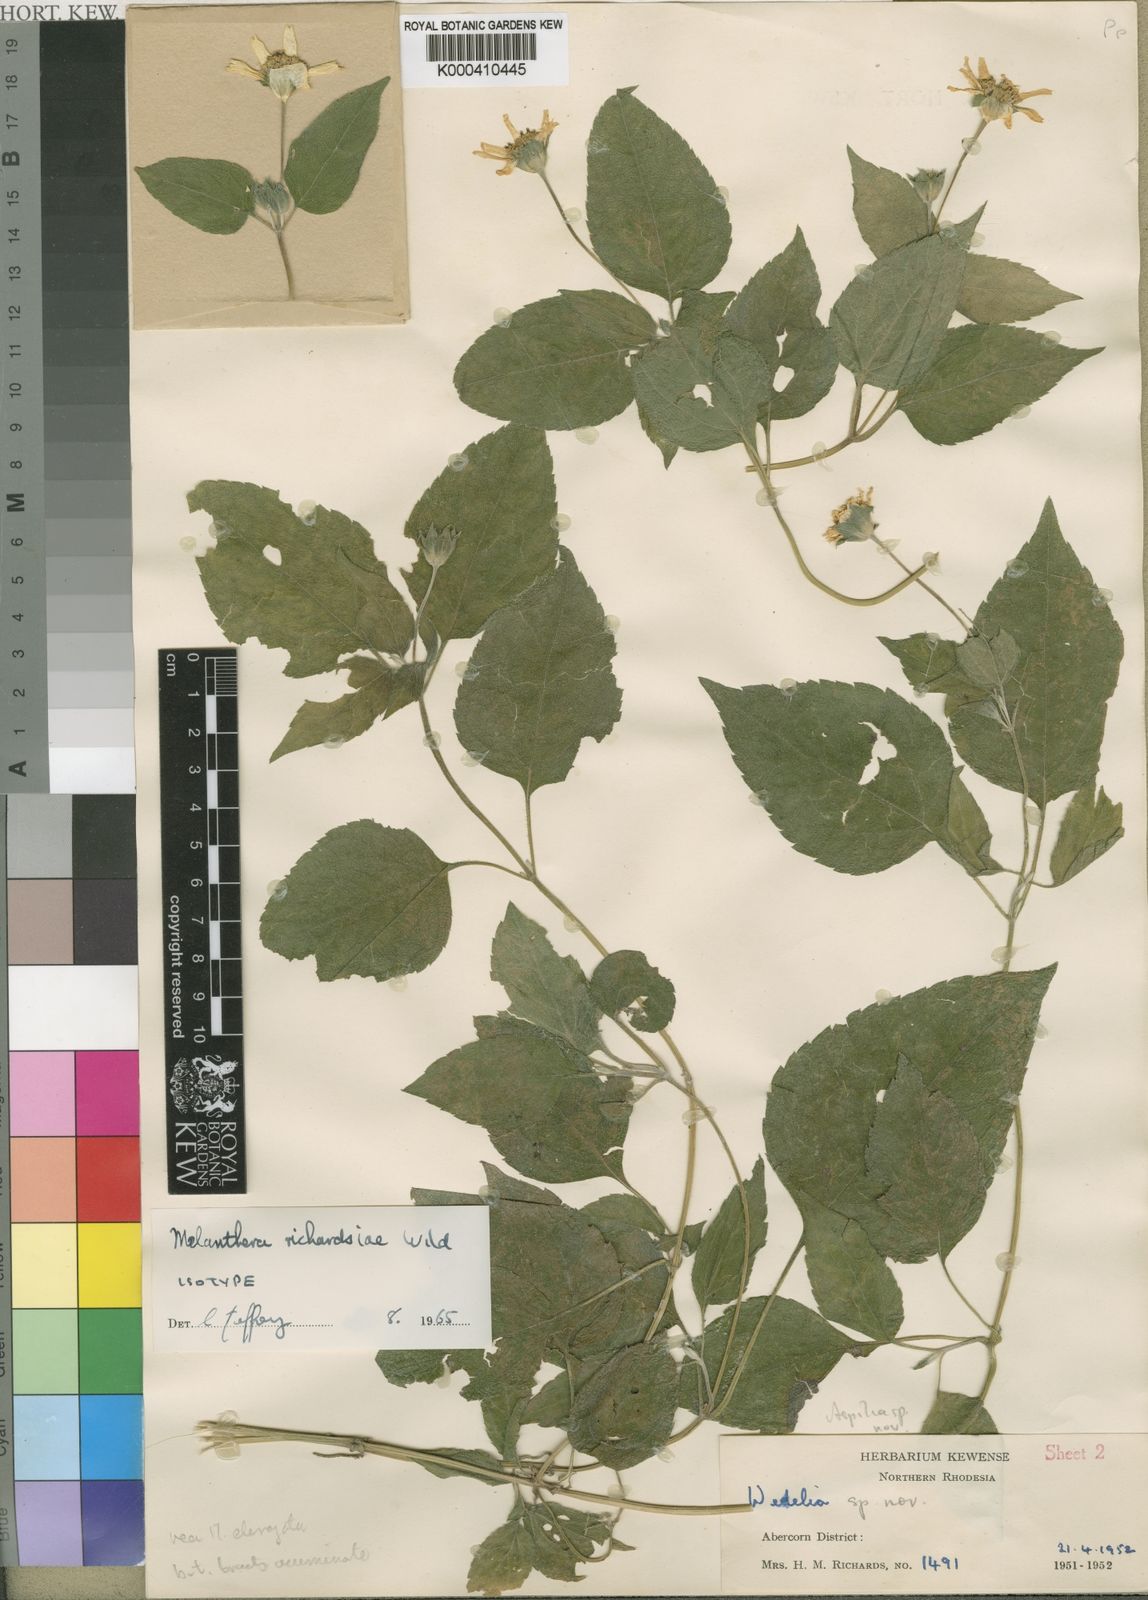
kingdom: Plantae
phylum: Tracheophyta
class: Magnoliopsida
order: Asterales
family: Asteraceae
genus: Lipotriche
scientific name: Lipotriche richardsiae
